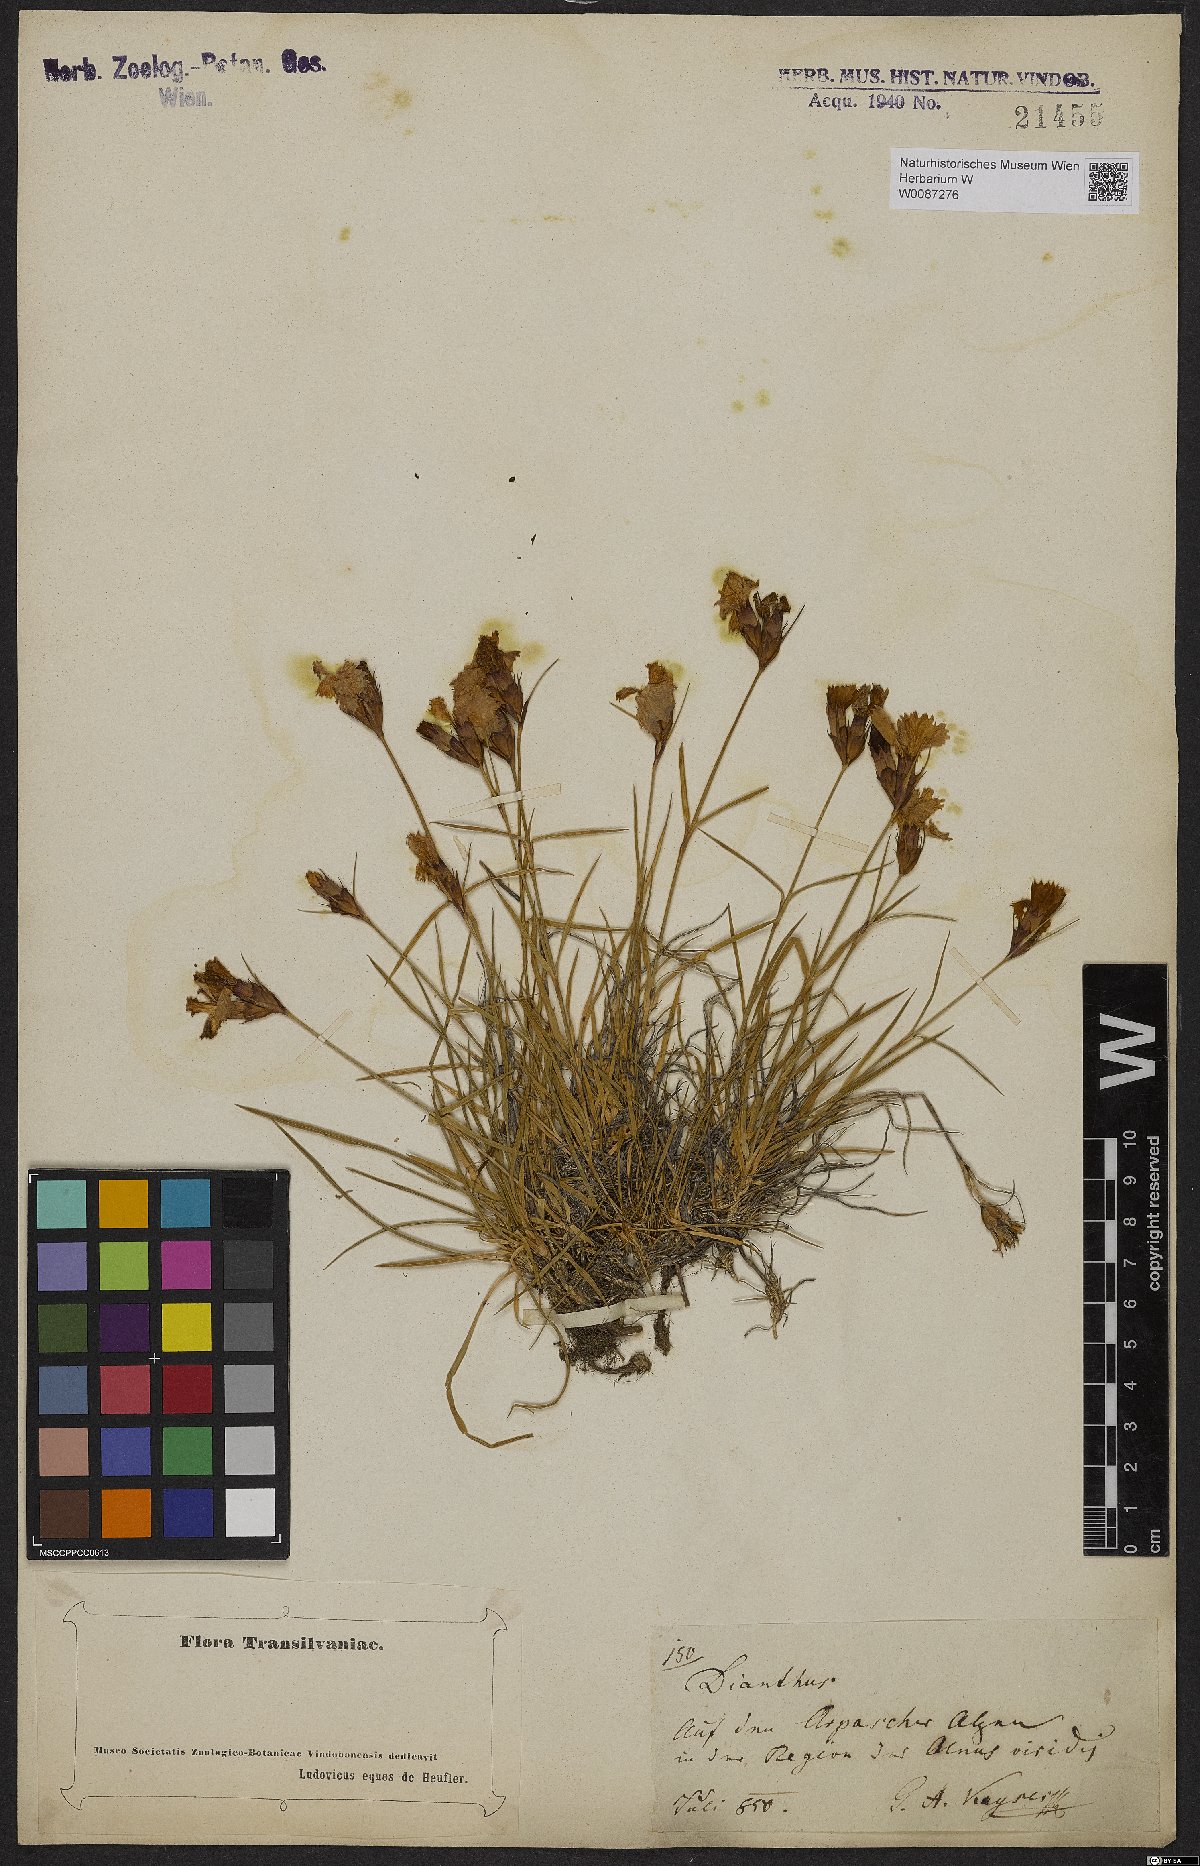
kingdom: Plantae
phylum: Tracheophyta
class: Magnoliopsida
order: Caryophyllales
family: Caryophyllaceae
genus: Dianthus
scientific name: Dianthus
